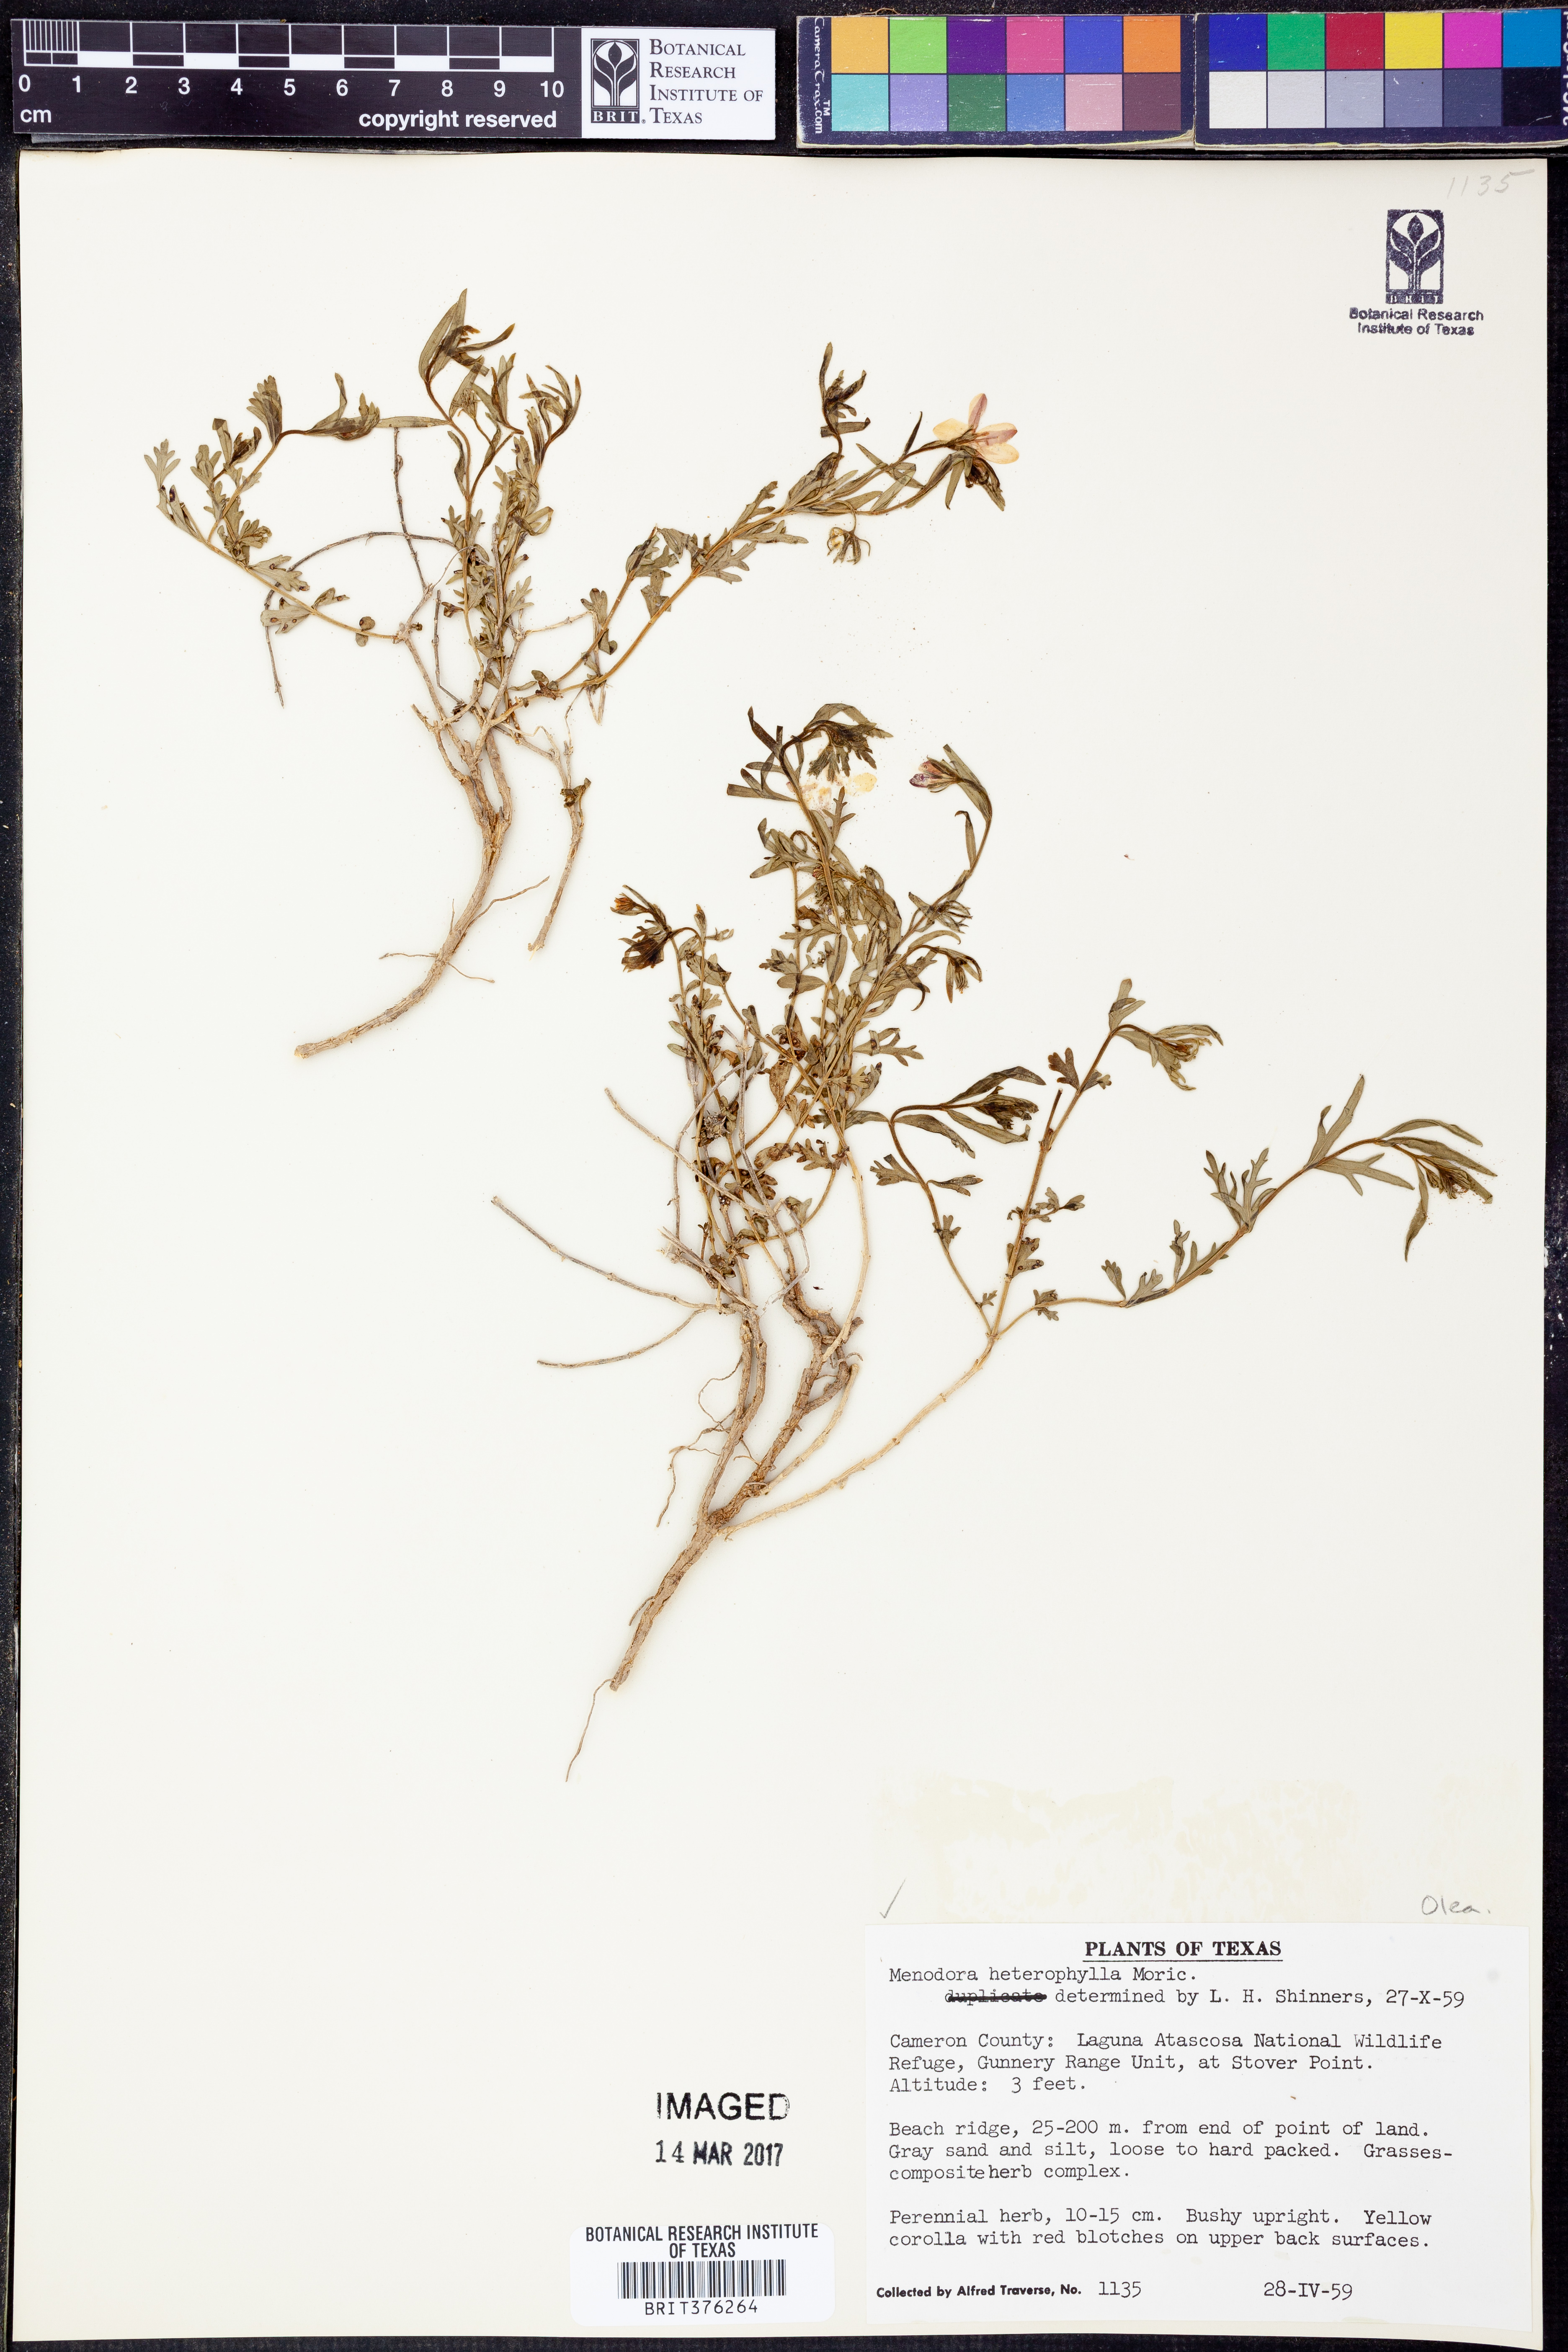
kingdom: Plantae
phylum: Tracheophyta
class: Magnoliopsida
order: Lamiales
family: Oleaceae
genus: Menodora
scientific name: Menodora heterophylla
